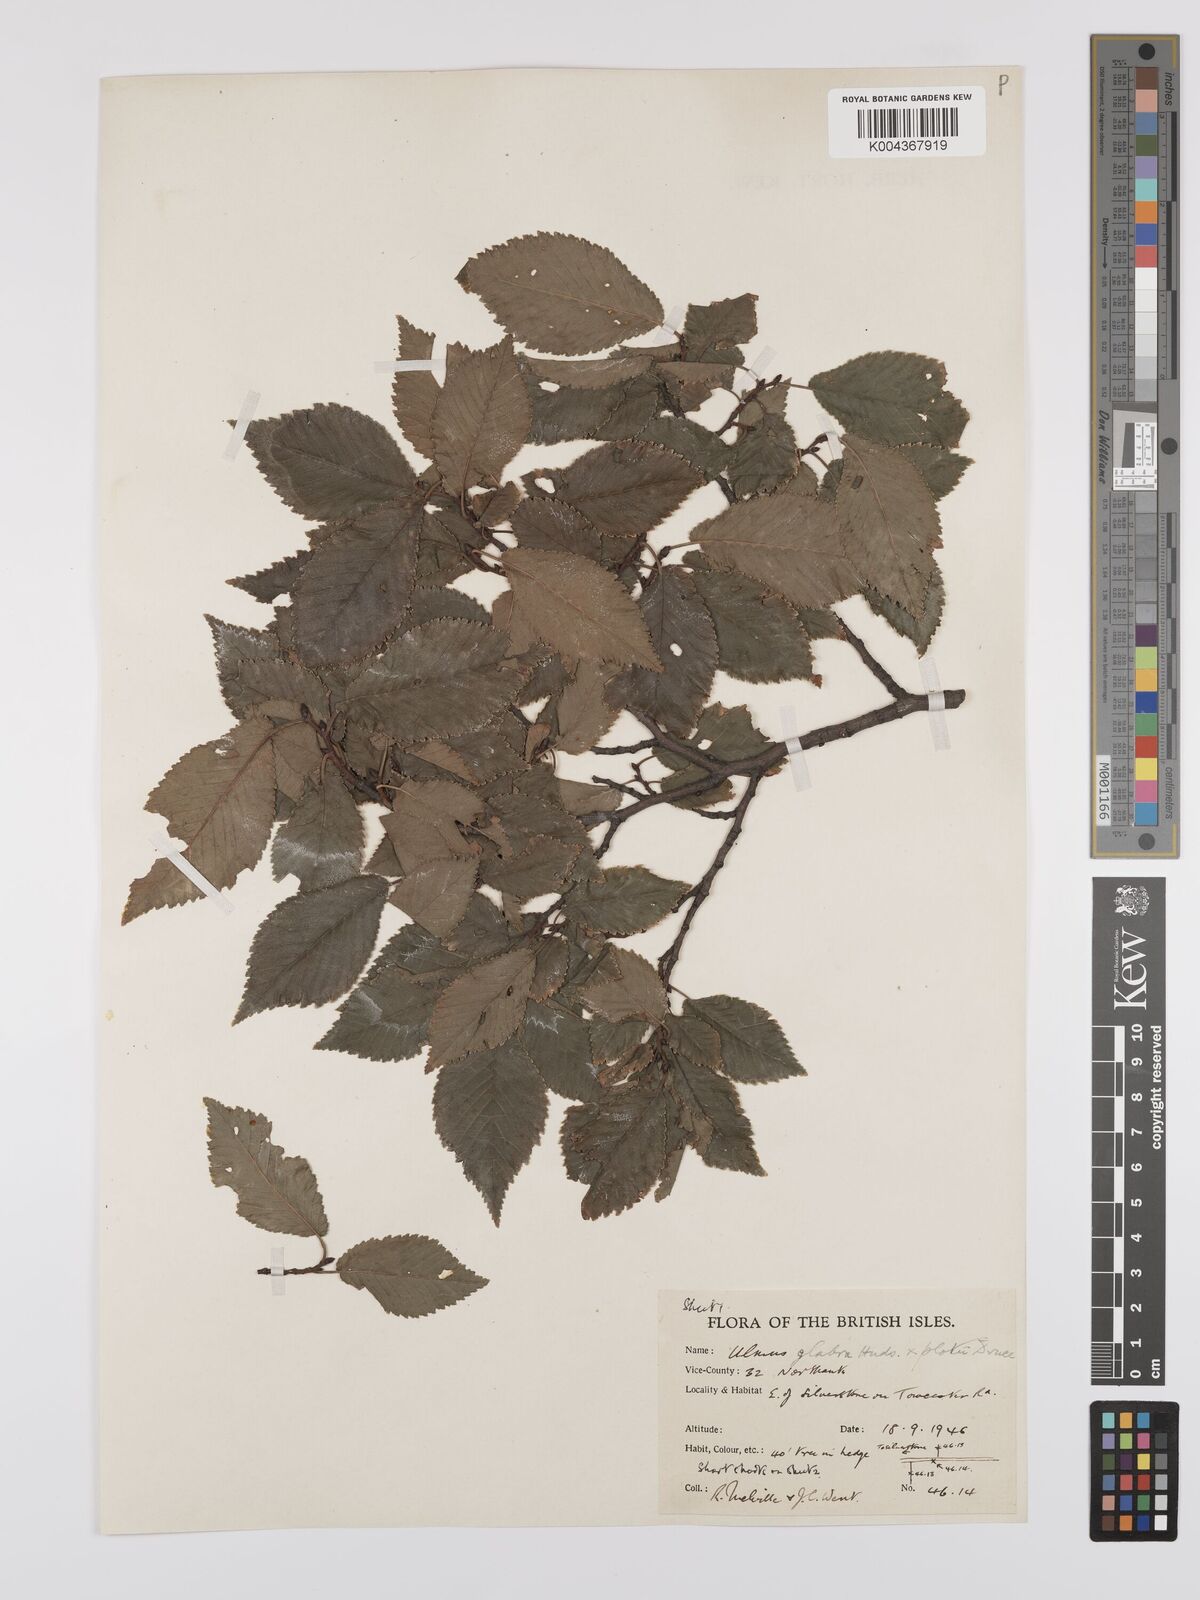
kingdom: Plantae
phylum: Tracheophyta
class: Magnoliopsida
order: Rosales
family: Ulmaceae
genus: Ulmus
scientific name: Ulmus
